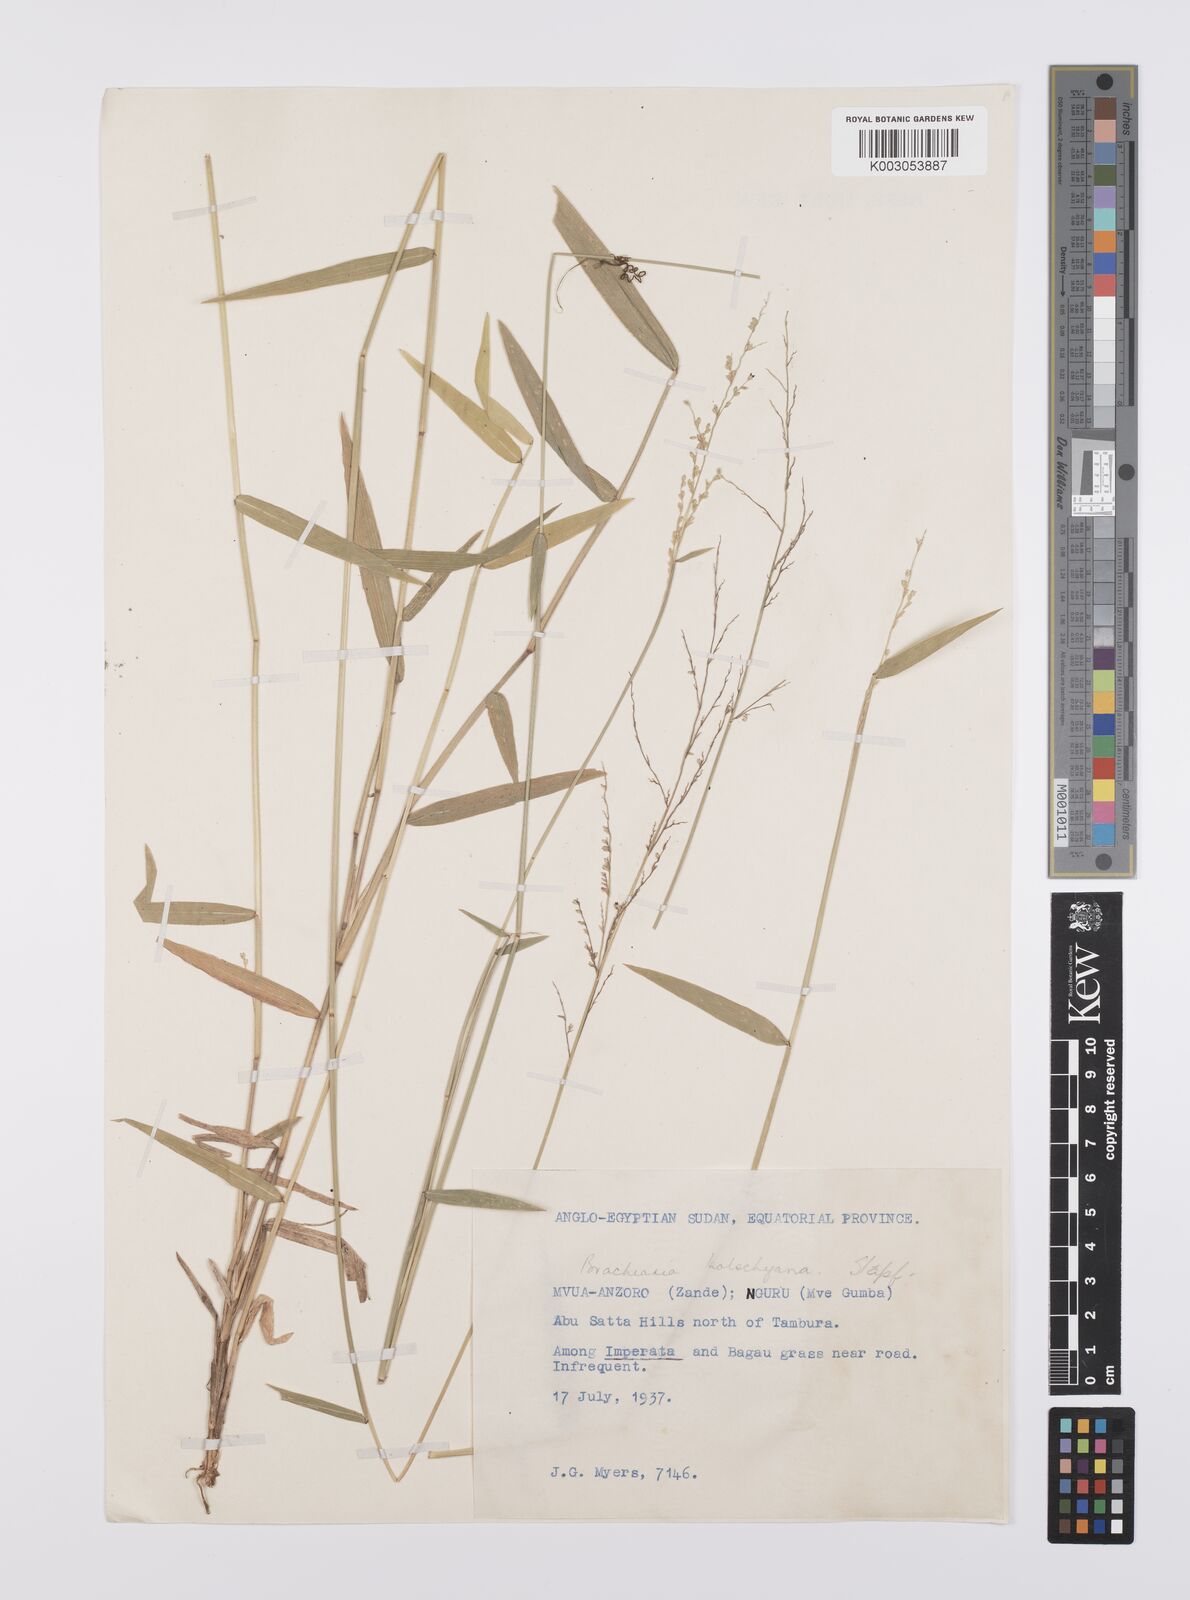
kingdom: Plantae
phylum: Tracheophyta
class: Liliopsida
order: Poales
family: Poaceae
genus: Urochloa
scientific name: Urochloa comata
